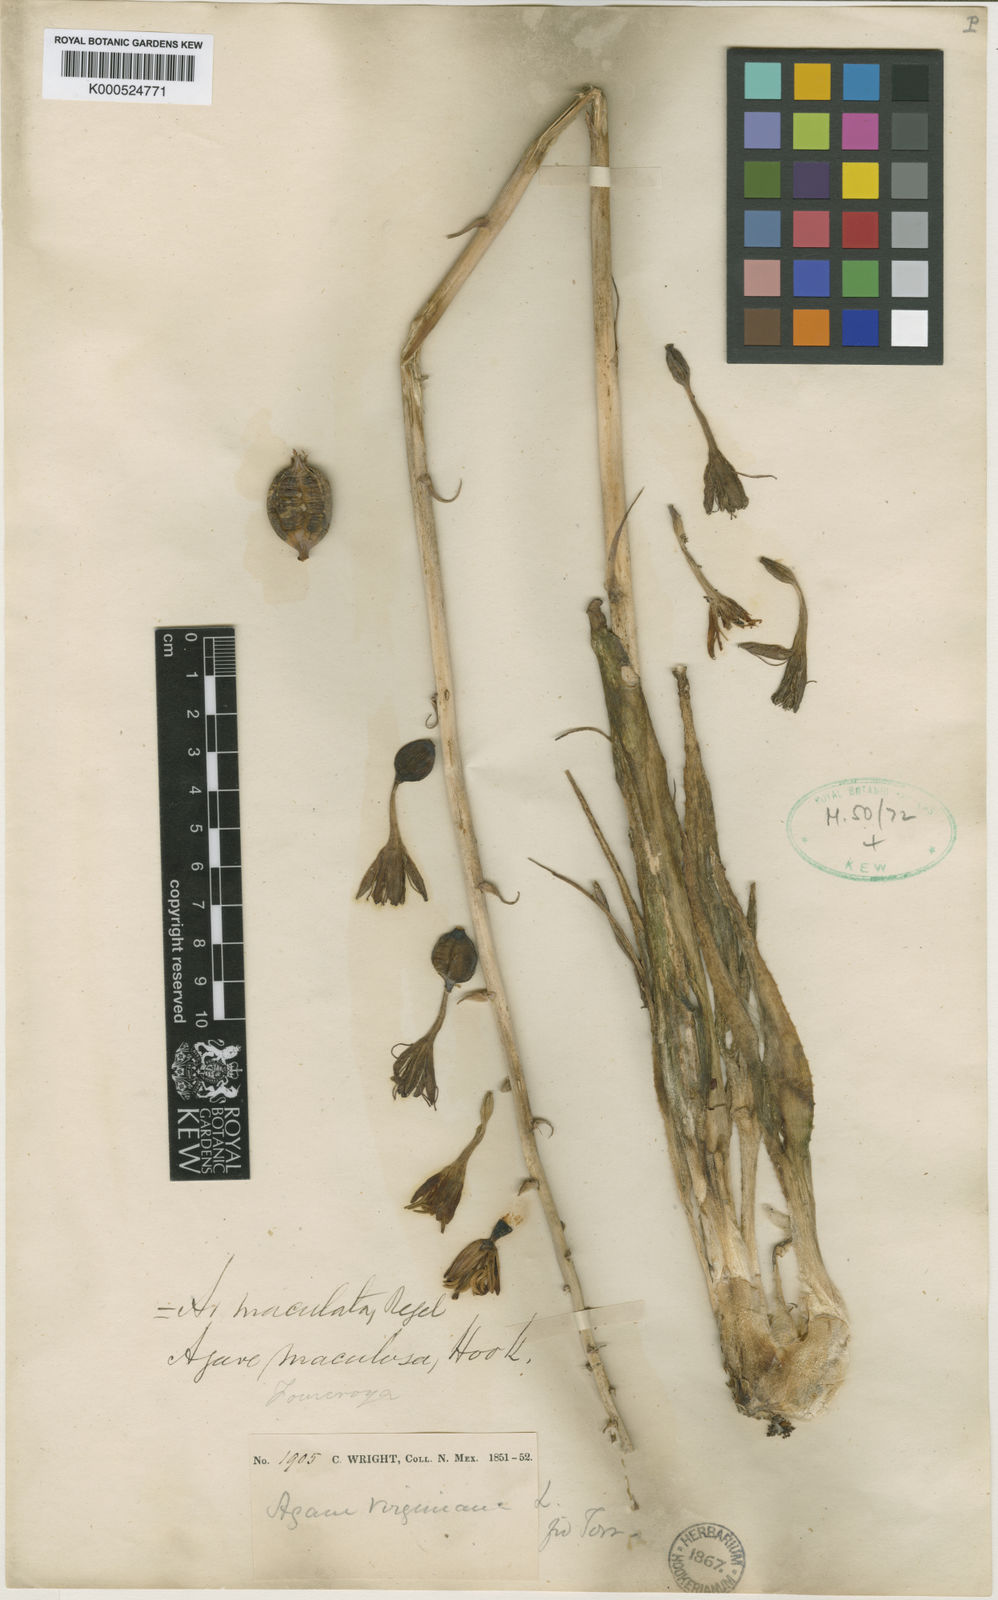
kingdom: Plantae
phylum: Tracheophyta
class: Liliopsida
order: Asparagales
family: Asparagaceae
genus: Agave
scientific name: Agave potosina
